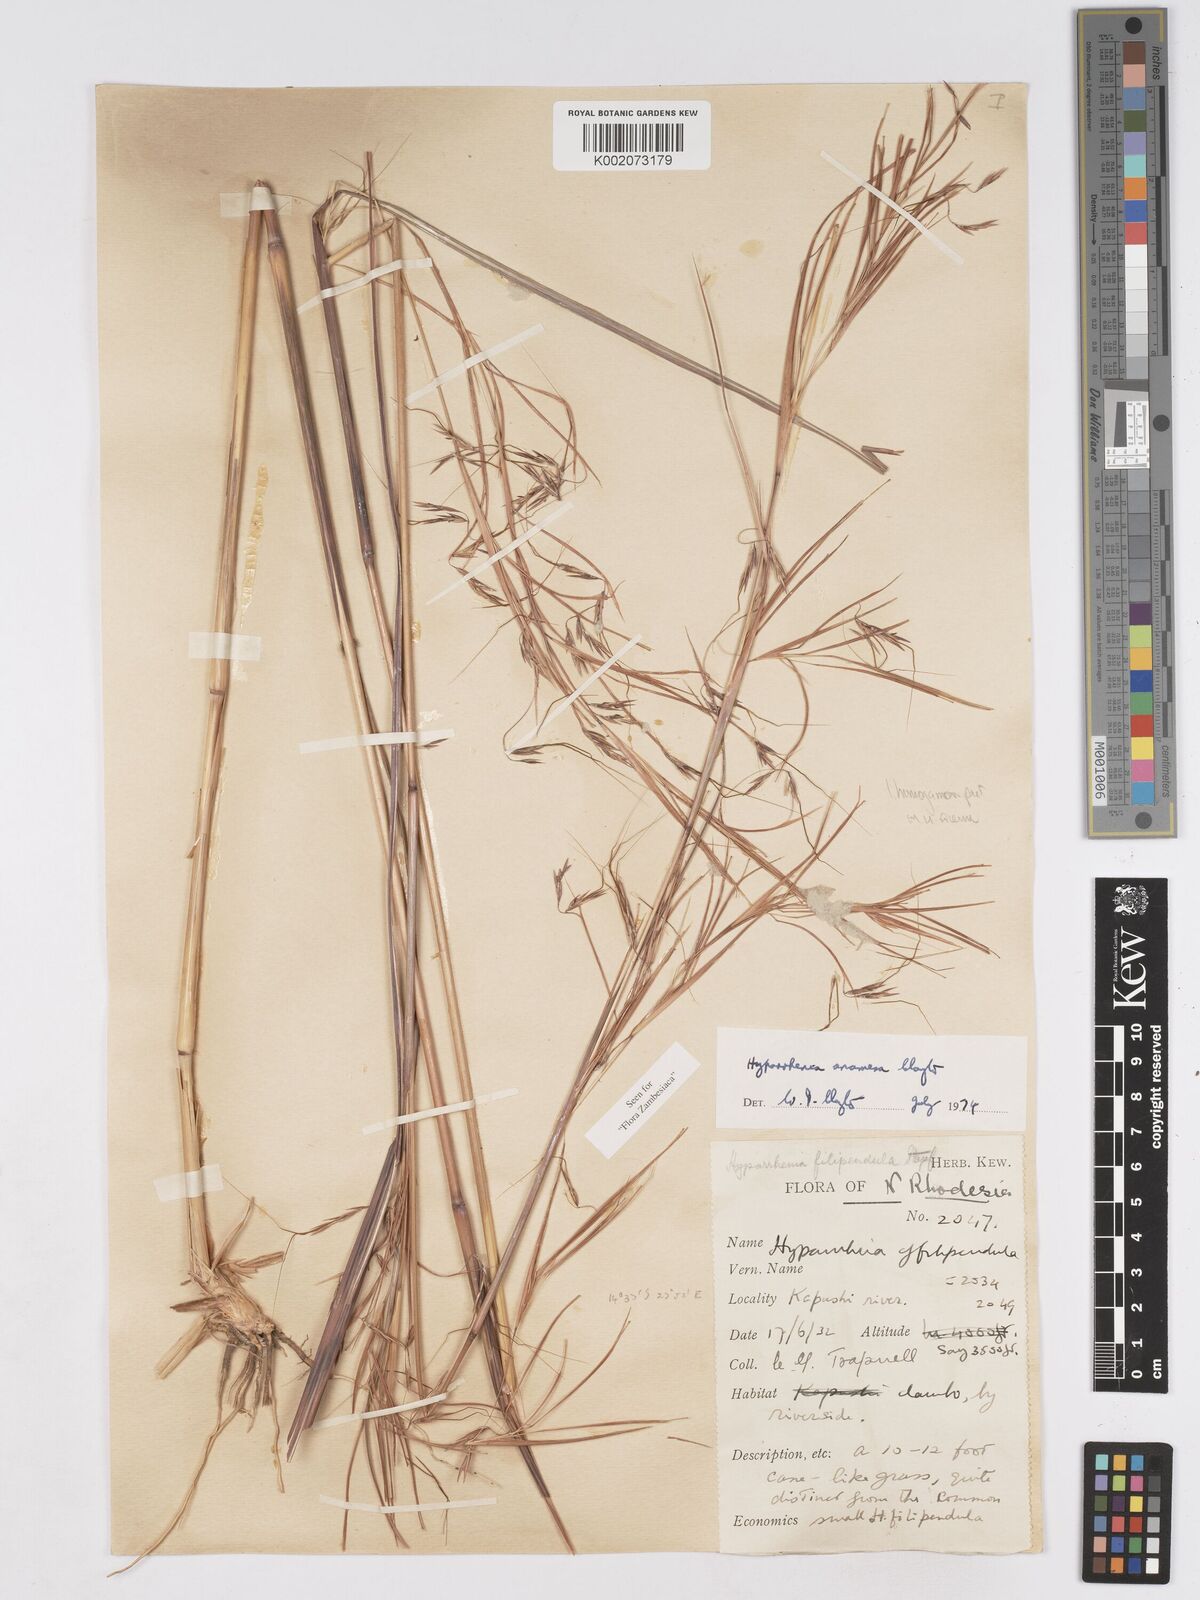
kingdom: Plantae
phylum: Tracheophyta
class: Liliopsida
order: Poales
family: Poaceae
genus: Hyparrhenia
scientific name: Hyparrhenia anamesa
